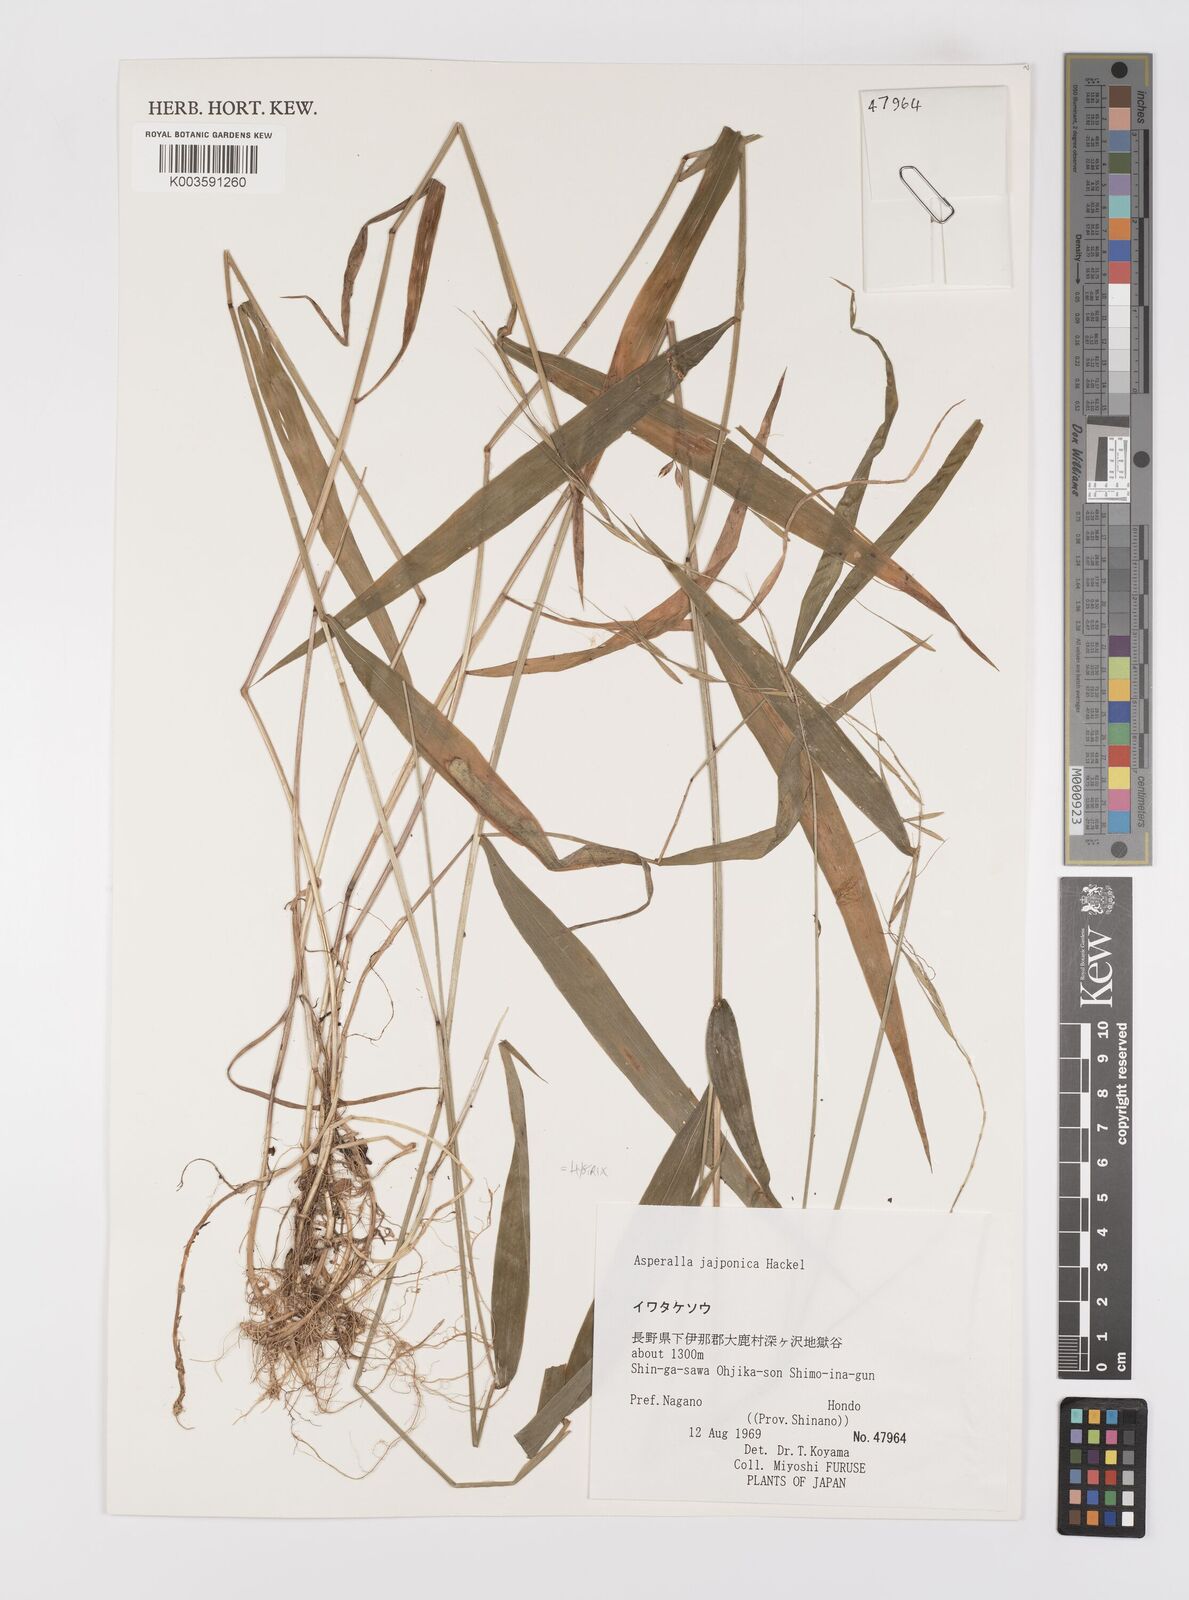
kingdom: Plantae
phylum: Tracheophyta
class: Liliopsida
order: Poales
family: Poaceae
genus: Leymus
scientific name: Leymus duthiei
